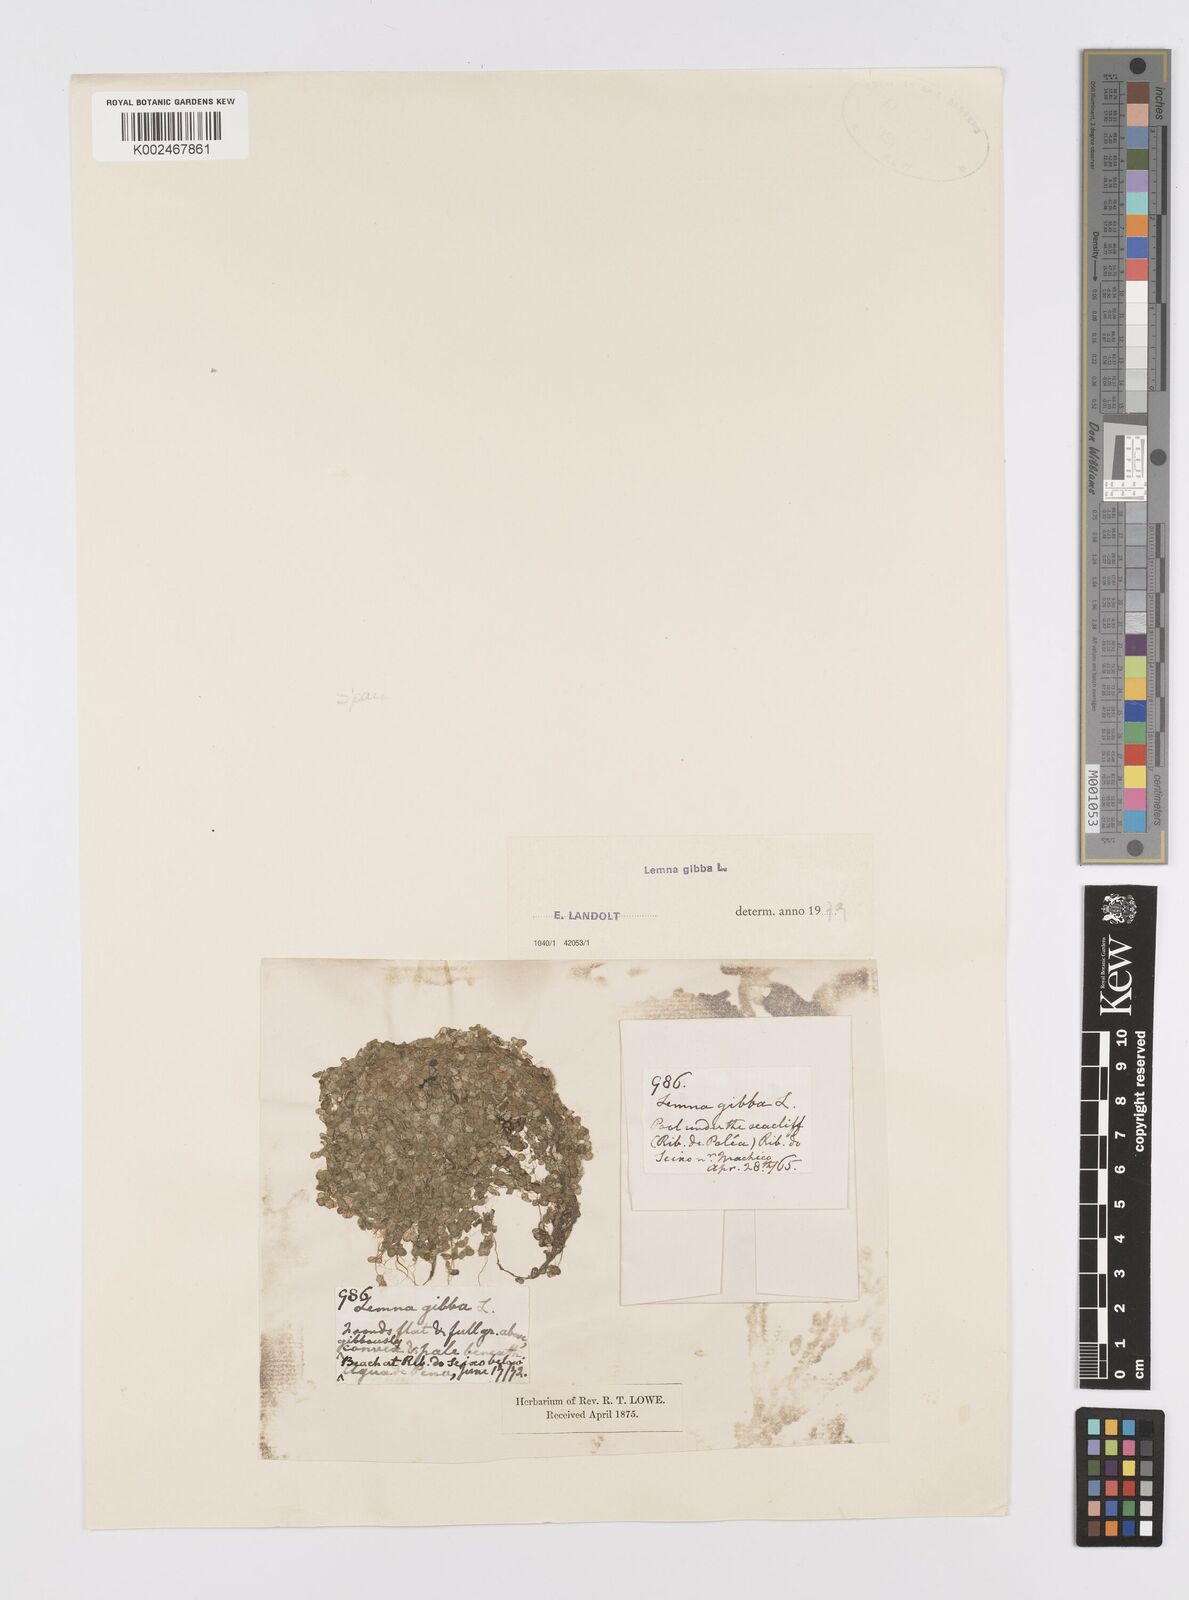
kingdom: Plantae
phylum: Tracheophyta
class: Liliopsida
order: Alismatales
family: Araceae
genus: Lemna
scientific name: Lemna gibba
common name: Fat duckweed
